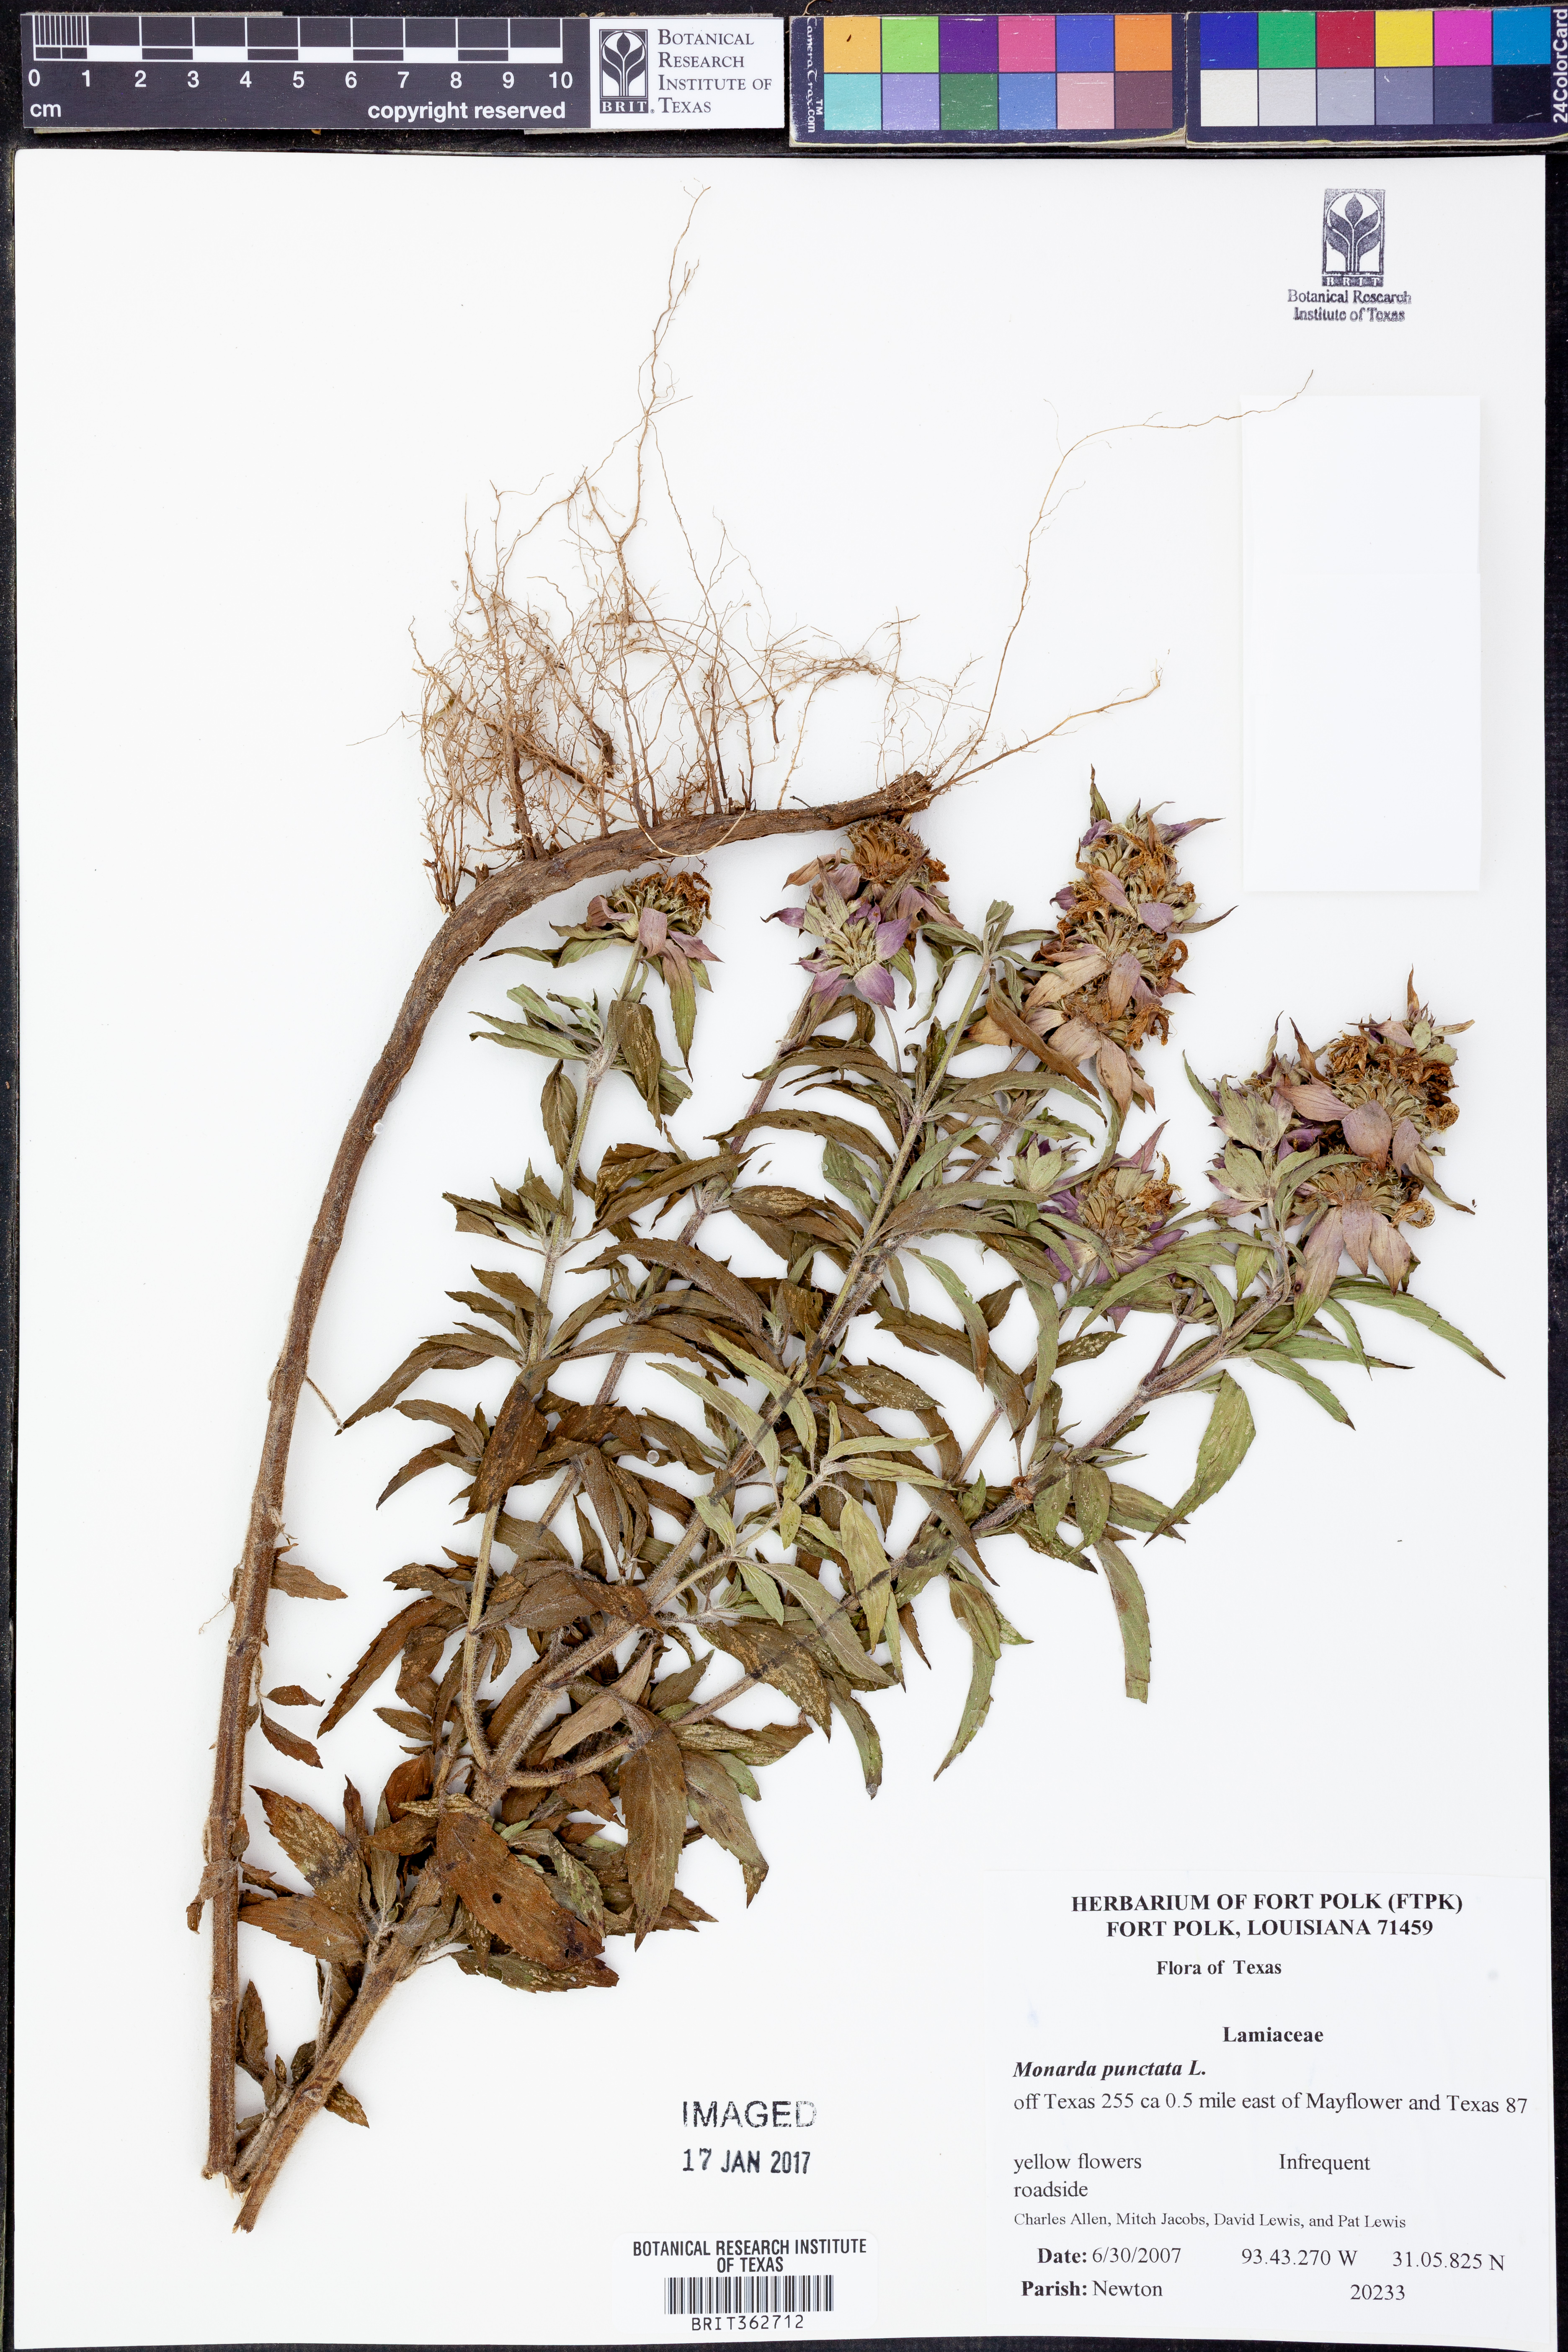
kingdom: Plantae
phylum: Tracheophyta
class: Magnoliopsida
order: Lamiales
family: Lamiaceae
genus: Monarda
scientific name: Monarda punctata
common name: Dotted monarda
